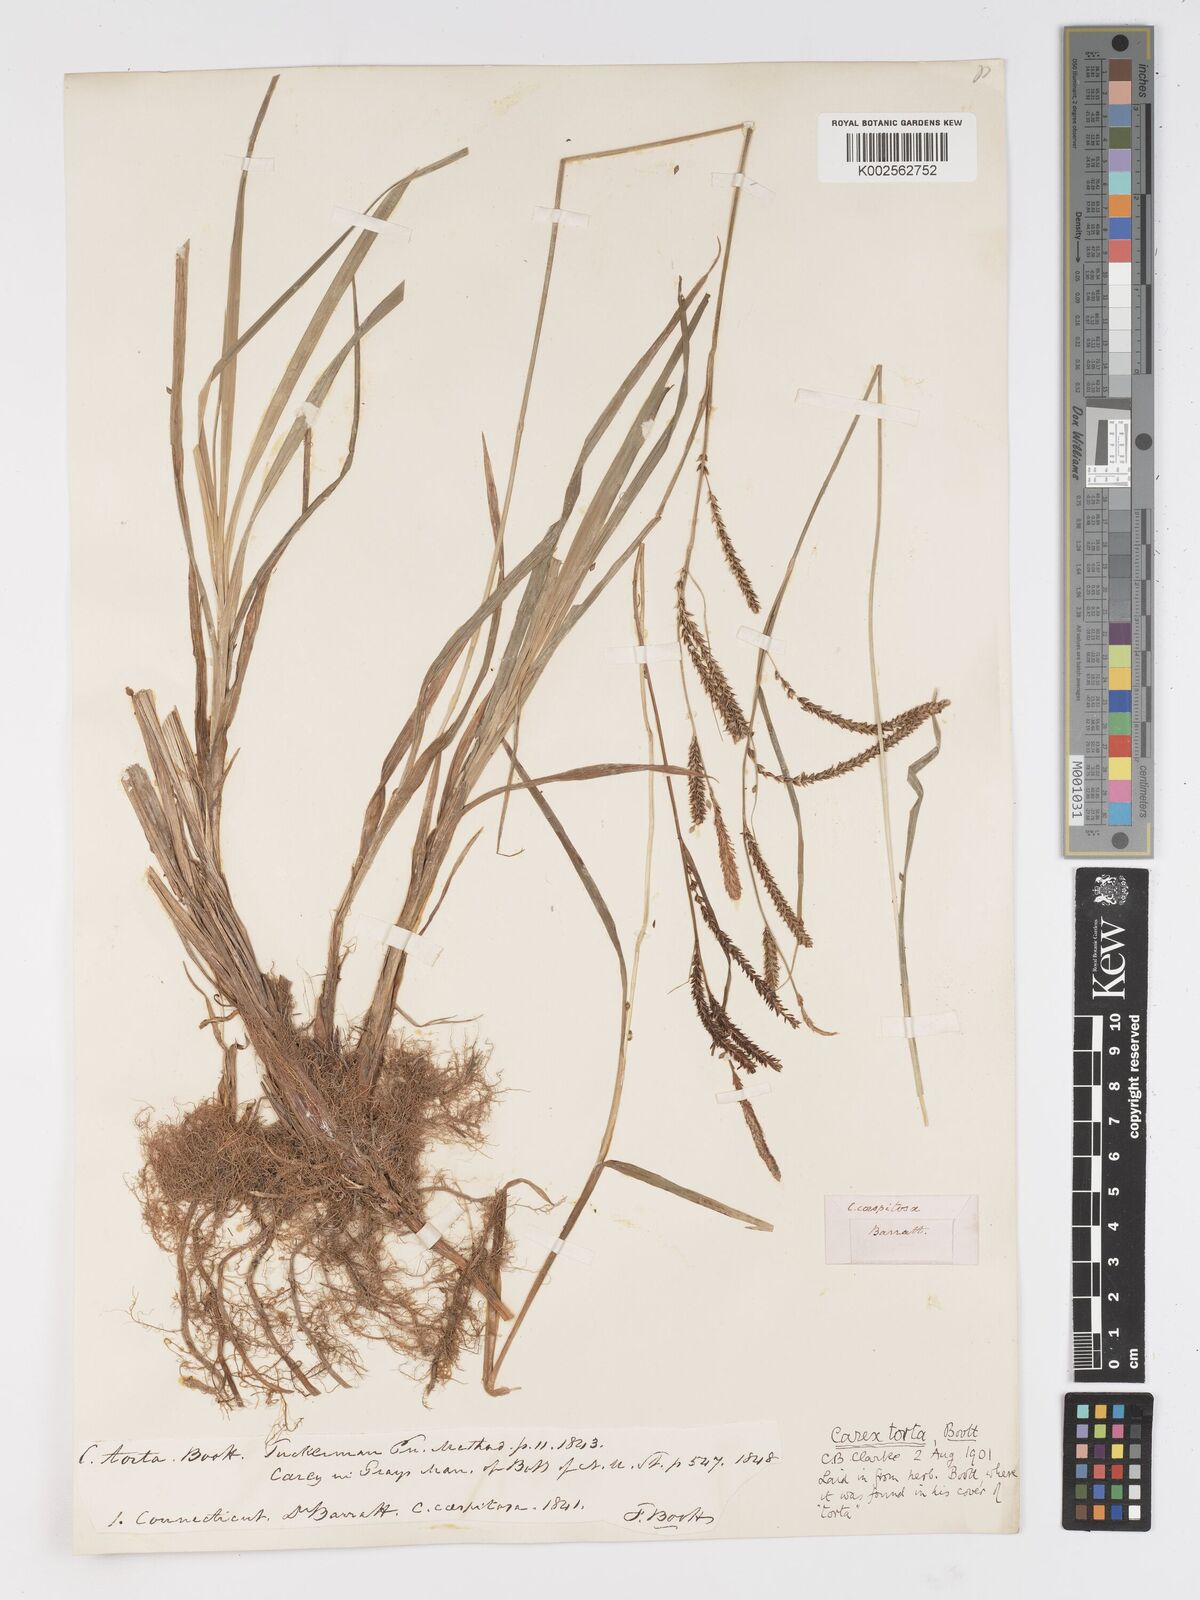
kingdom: Plantae
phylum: Tracheophyta
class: Liliopsida
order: Poales
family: Cyperaceae
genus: Carex
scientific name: Carex torta
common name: Twisted sedge
